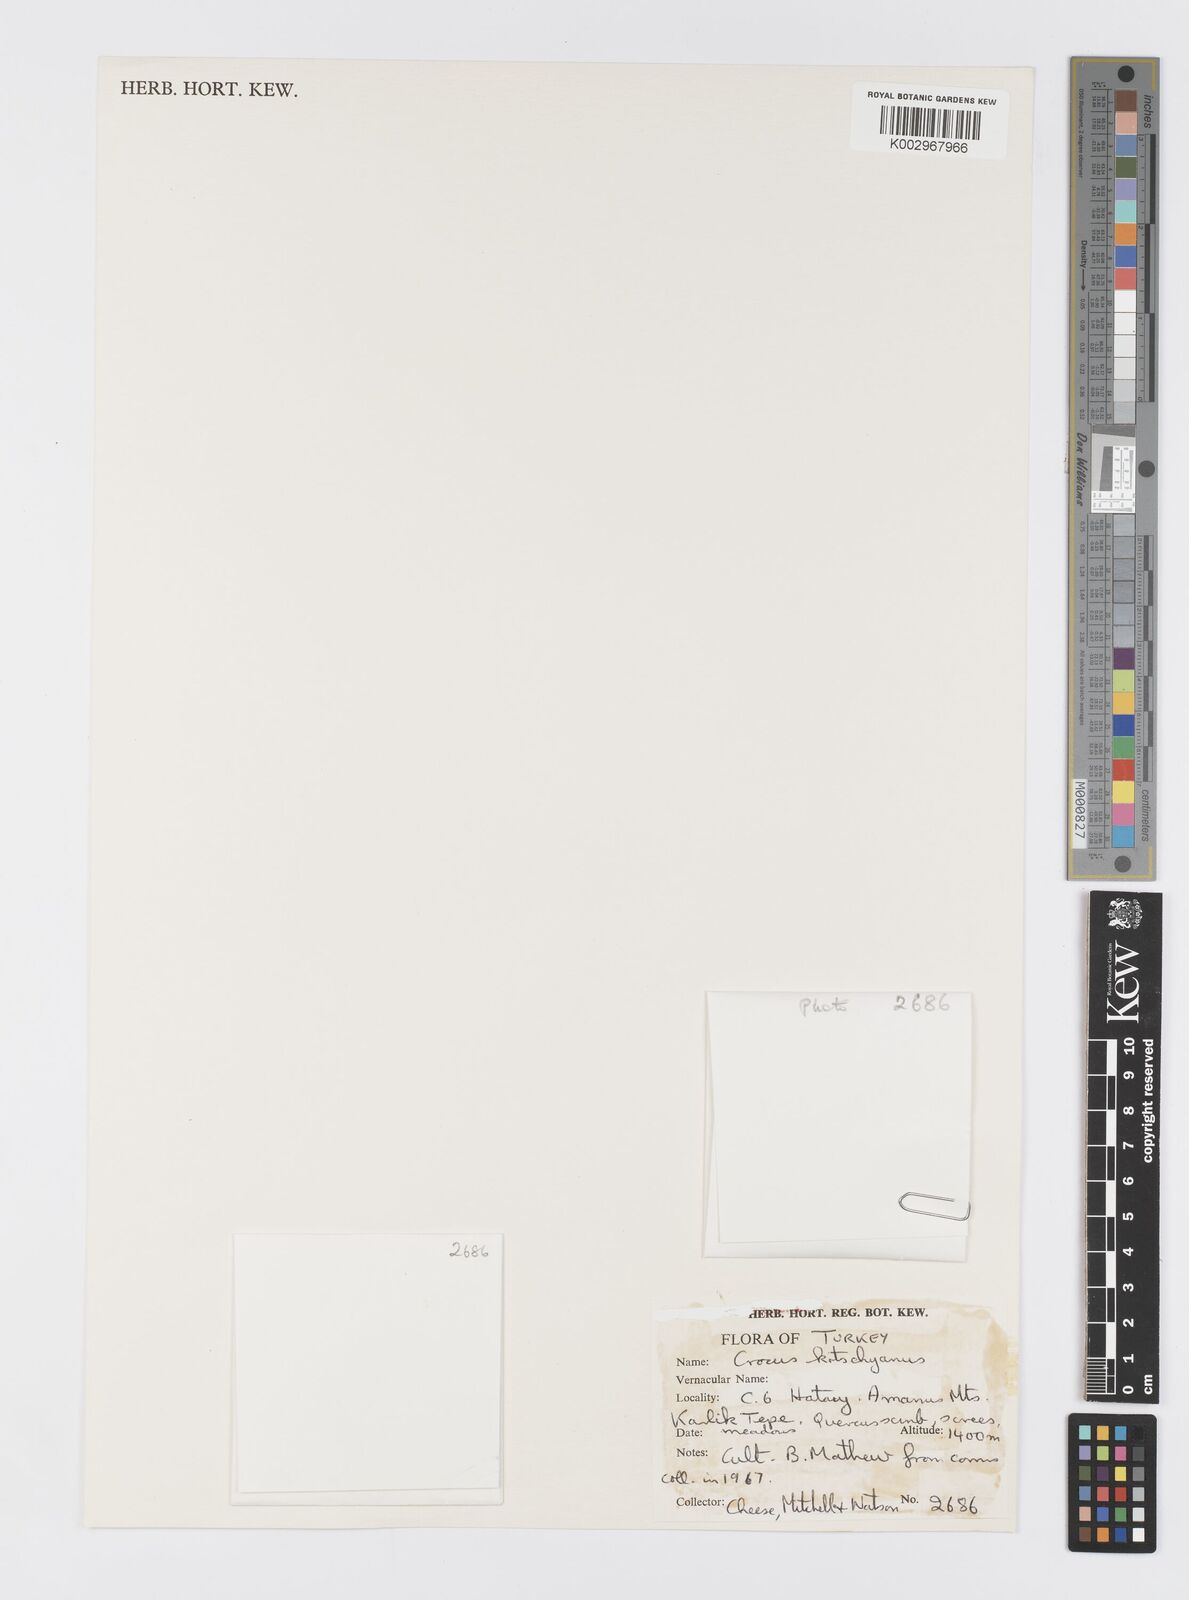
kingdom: Plantae
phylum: Tracheophyta
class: Liliopsida
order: Asparagales
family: Iridaceae
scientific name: Iridaceae
